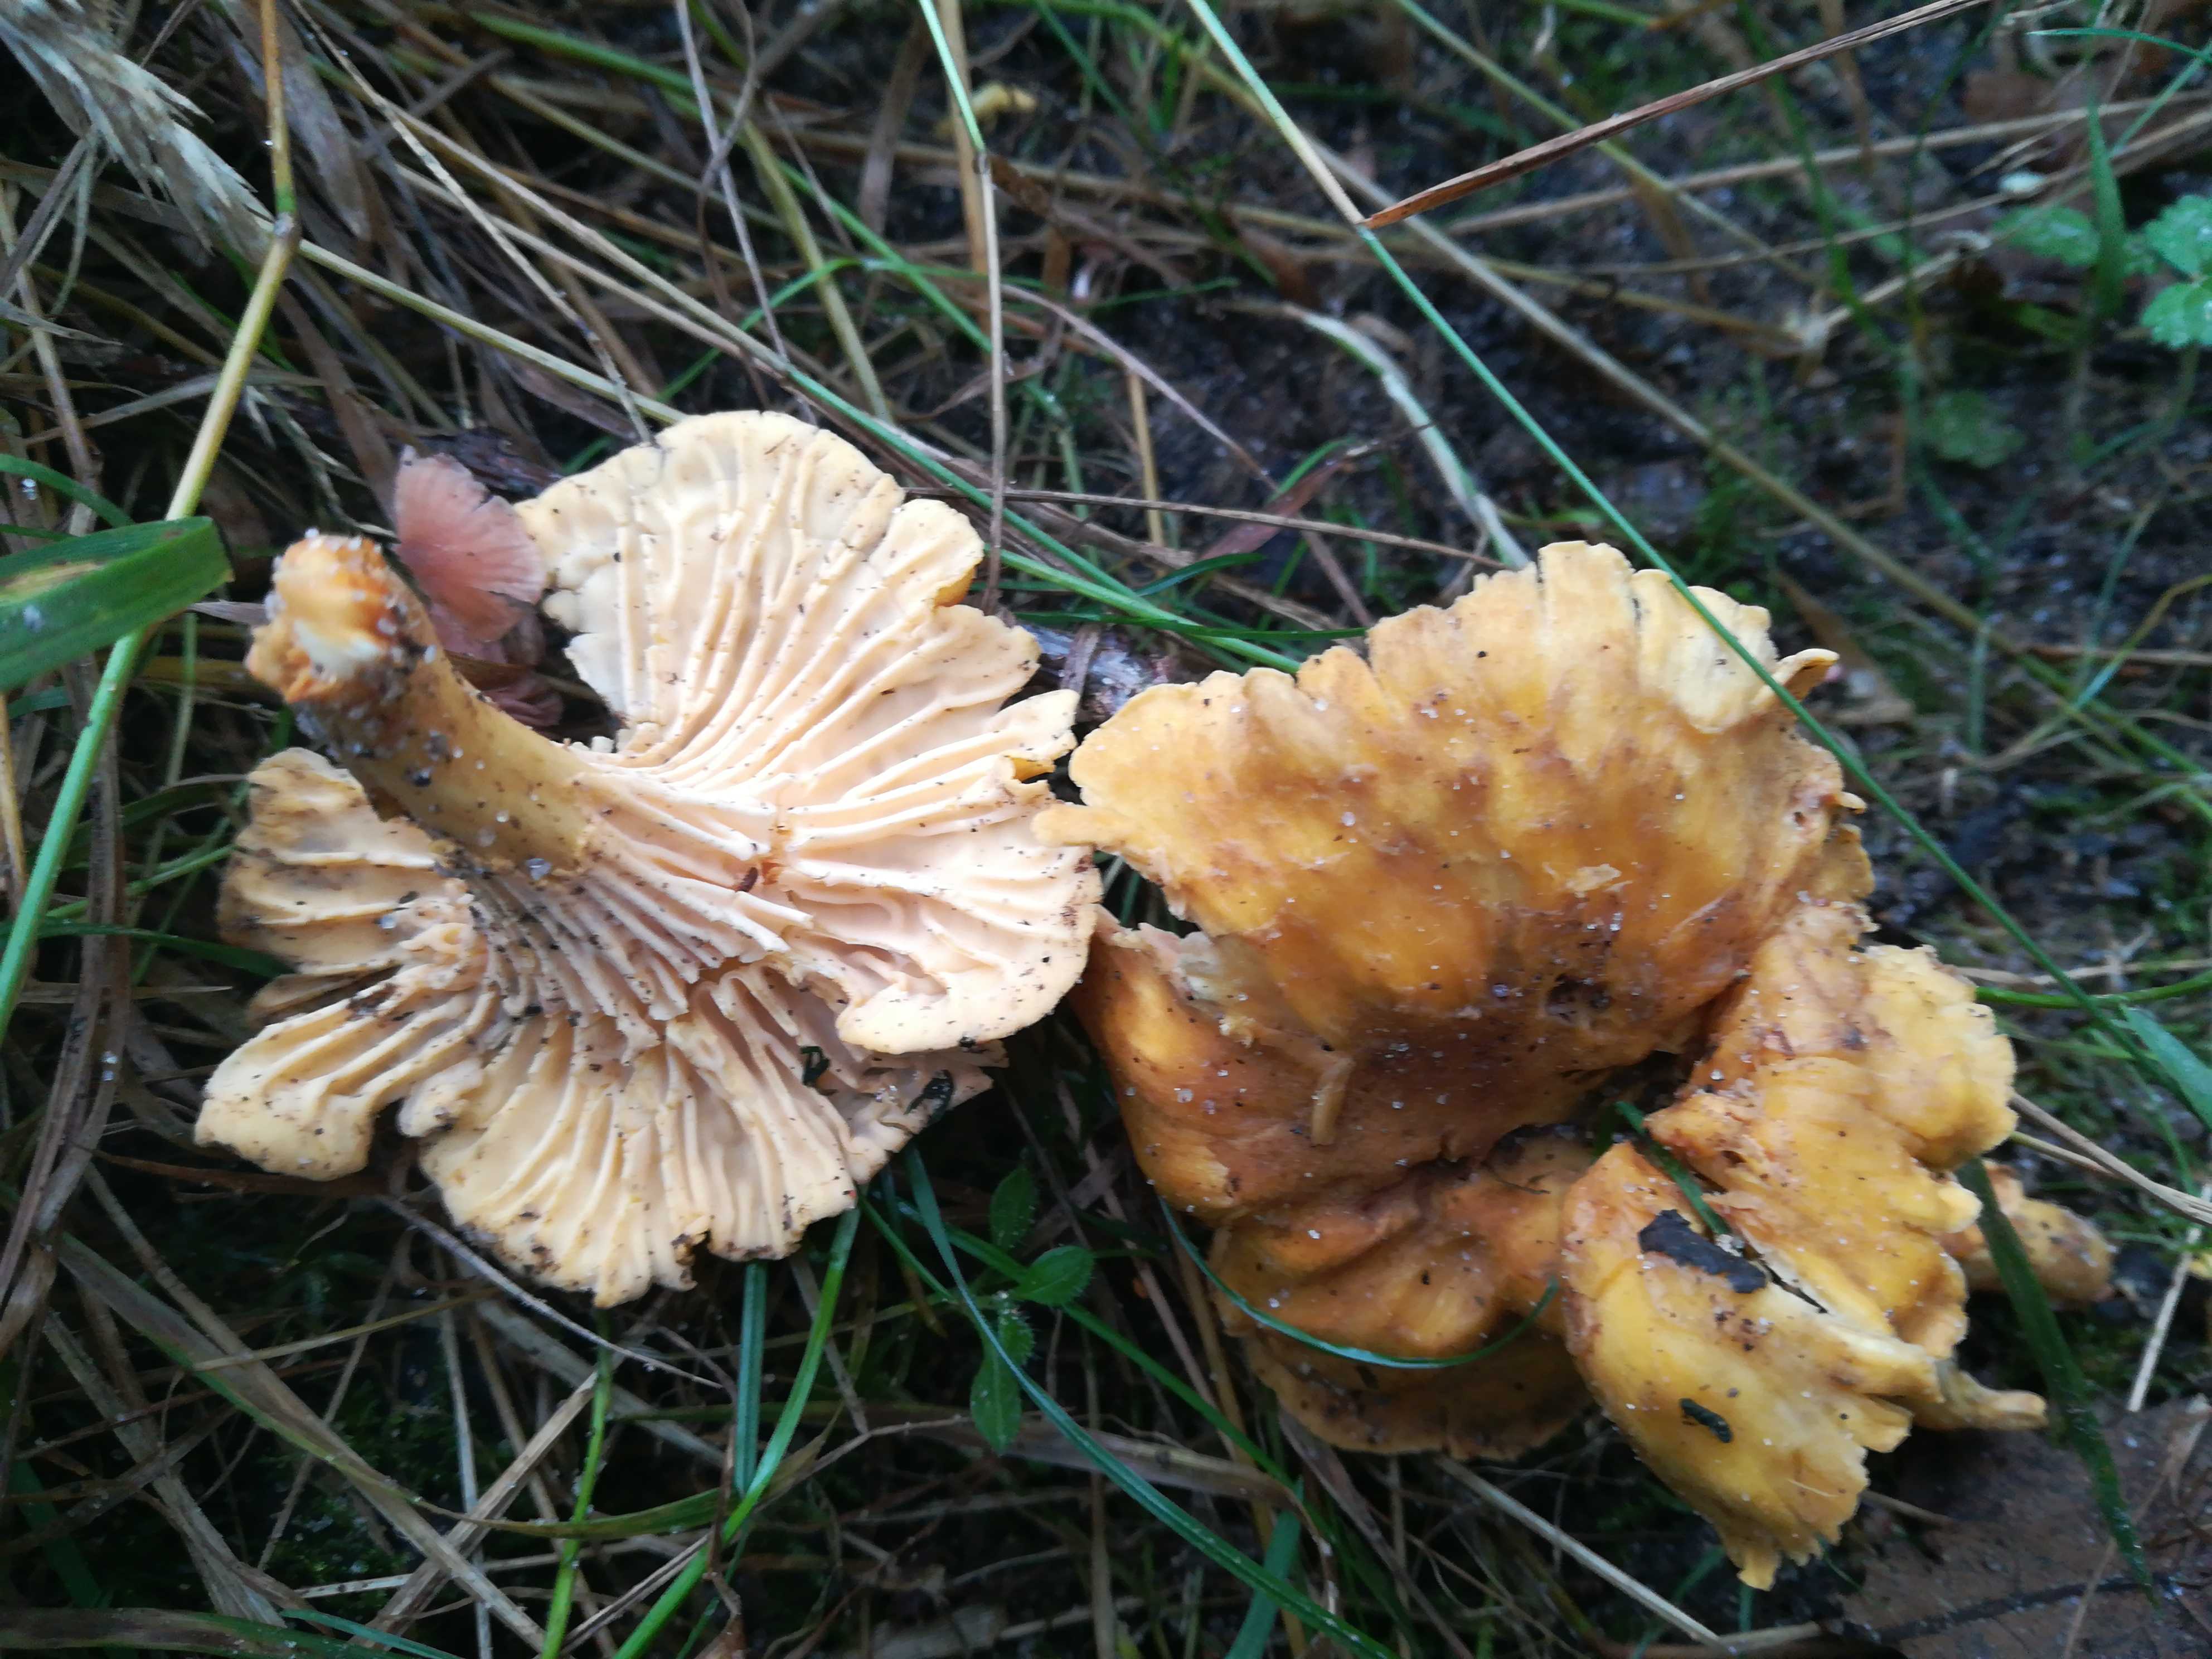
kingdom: Fungi
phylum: Basidiomycota
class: Agaricomycetes
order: Cantharellales
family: Hydnaceae
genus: Cantharellus
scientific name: Cantharellus amethysteus
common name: ametyst-kantarel
